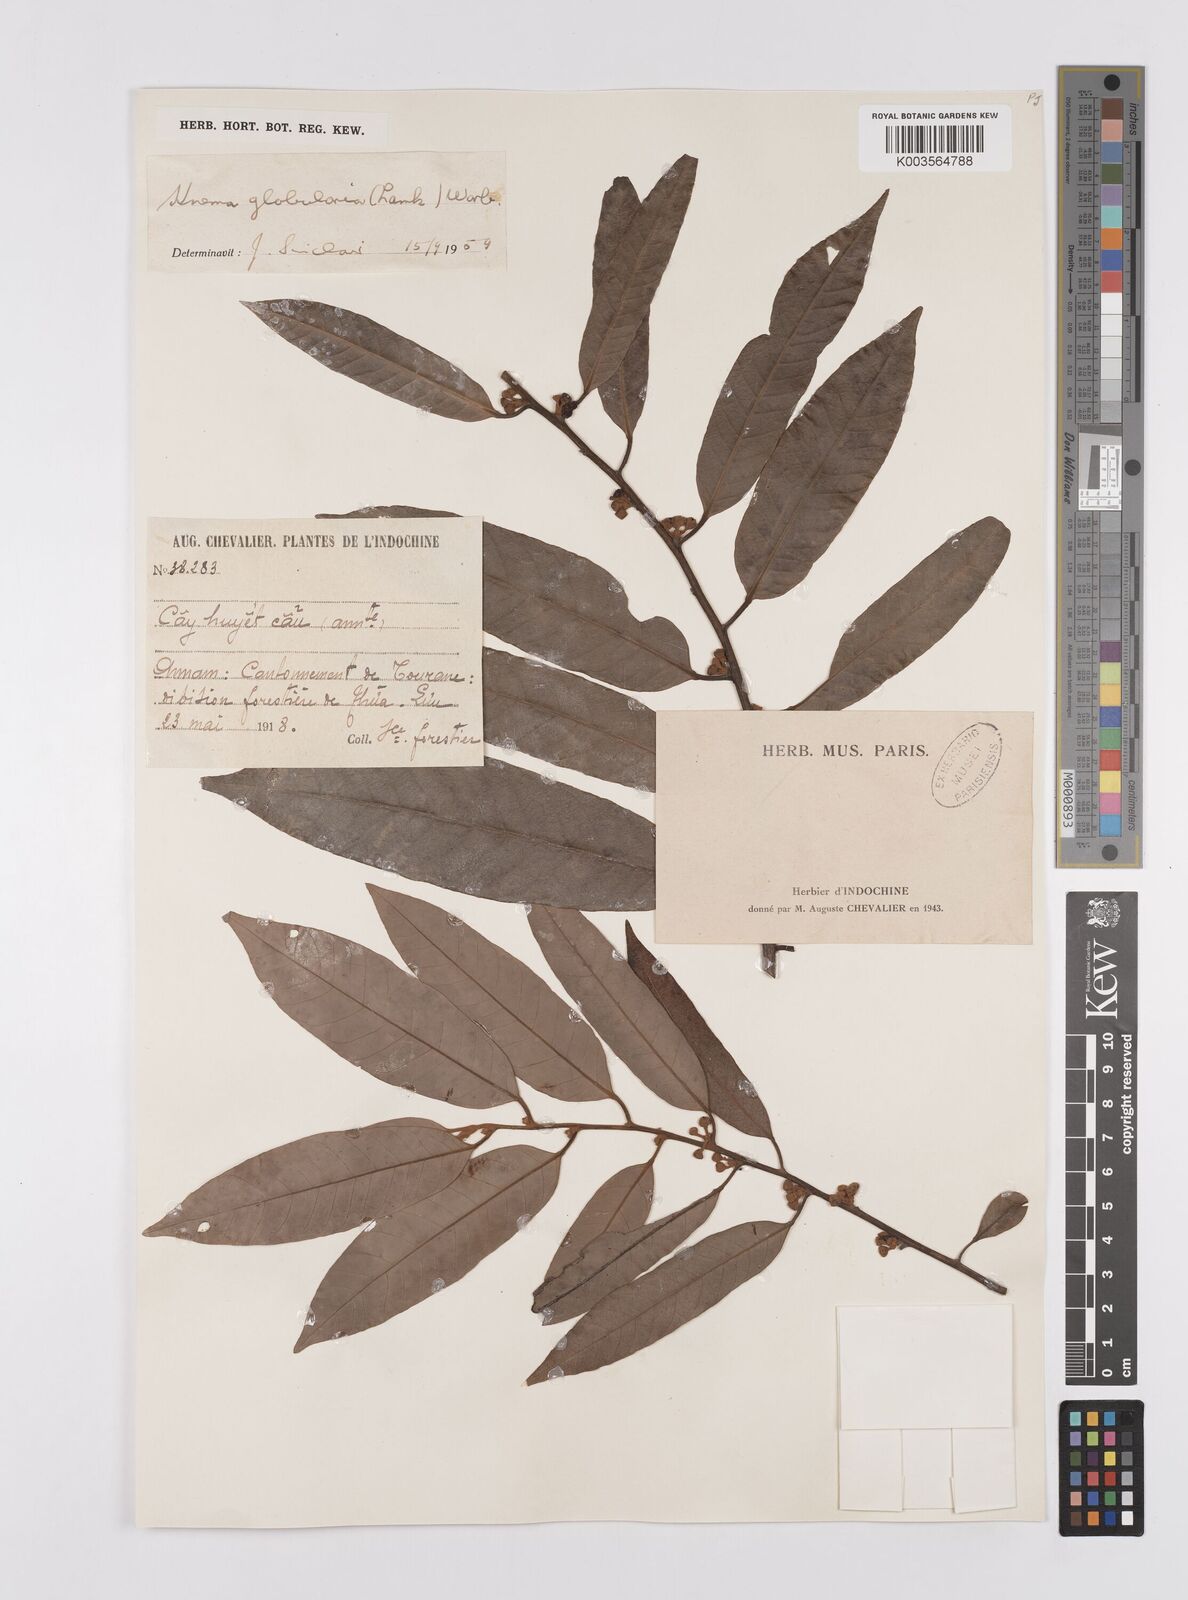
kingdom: Plantae
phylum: Tracheophyta
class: Magnoliopsida
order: Magnoliales
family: Myristicaceae
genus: Knema
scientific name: Knema globularia
